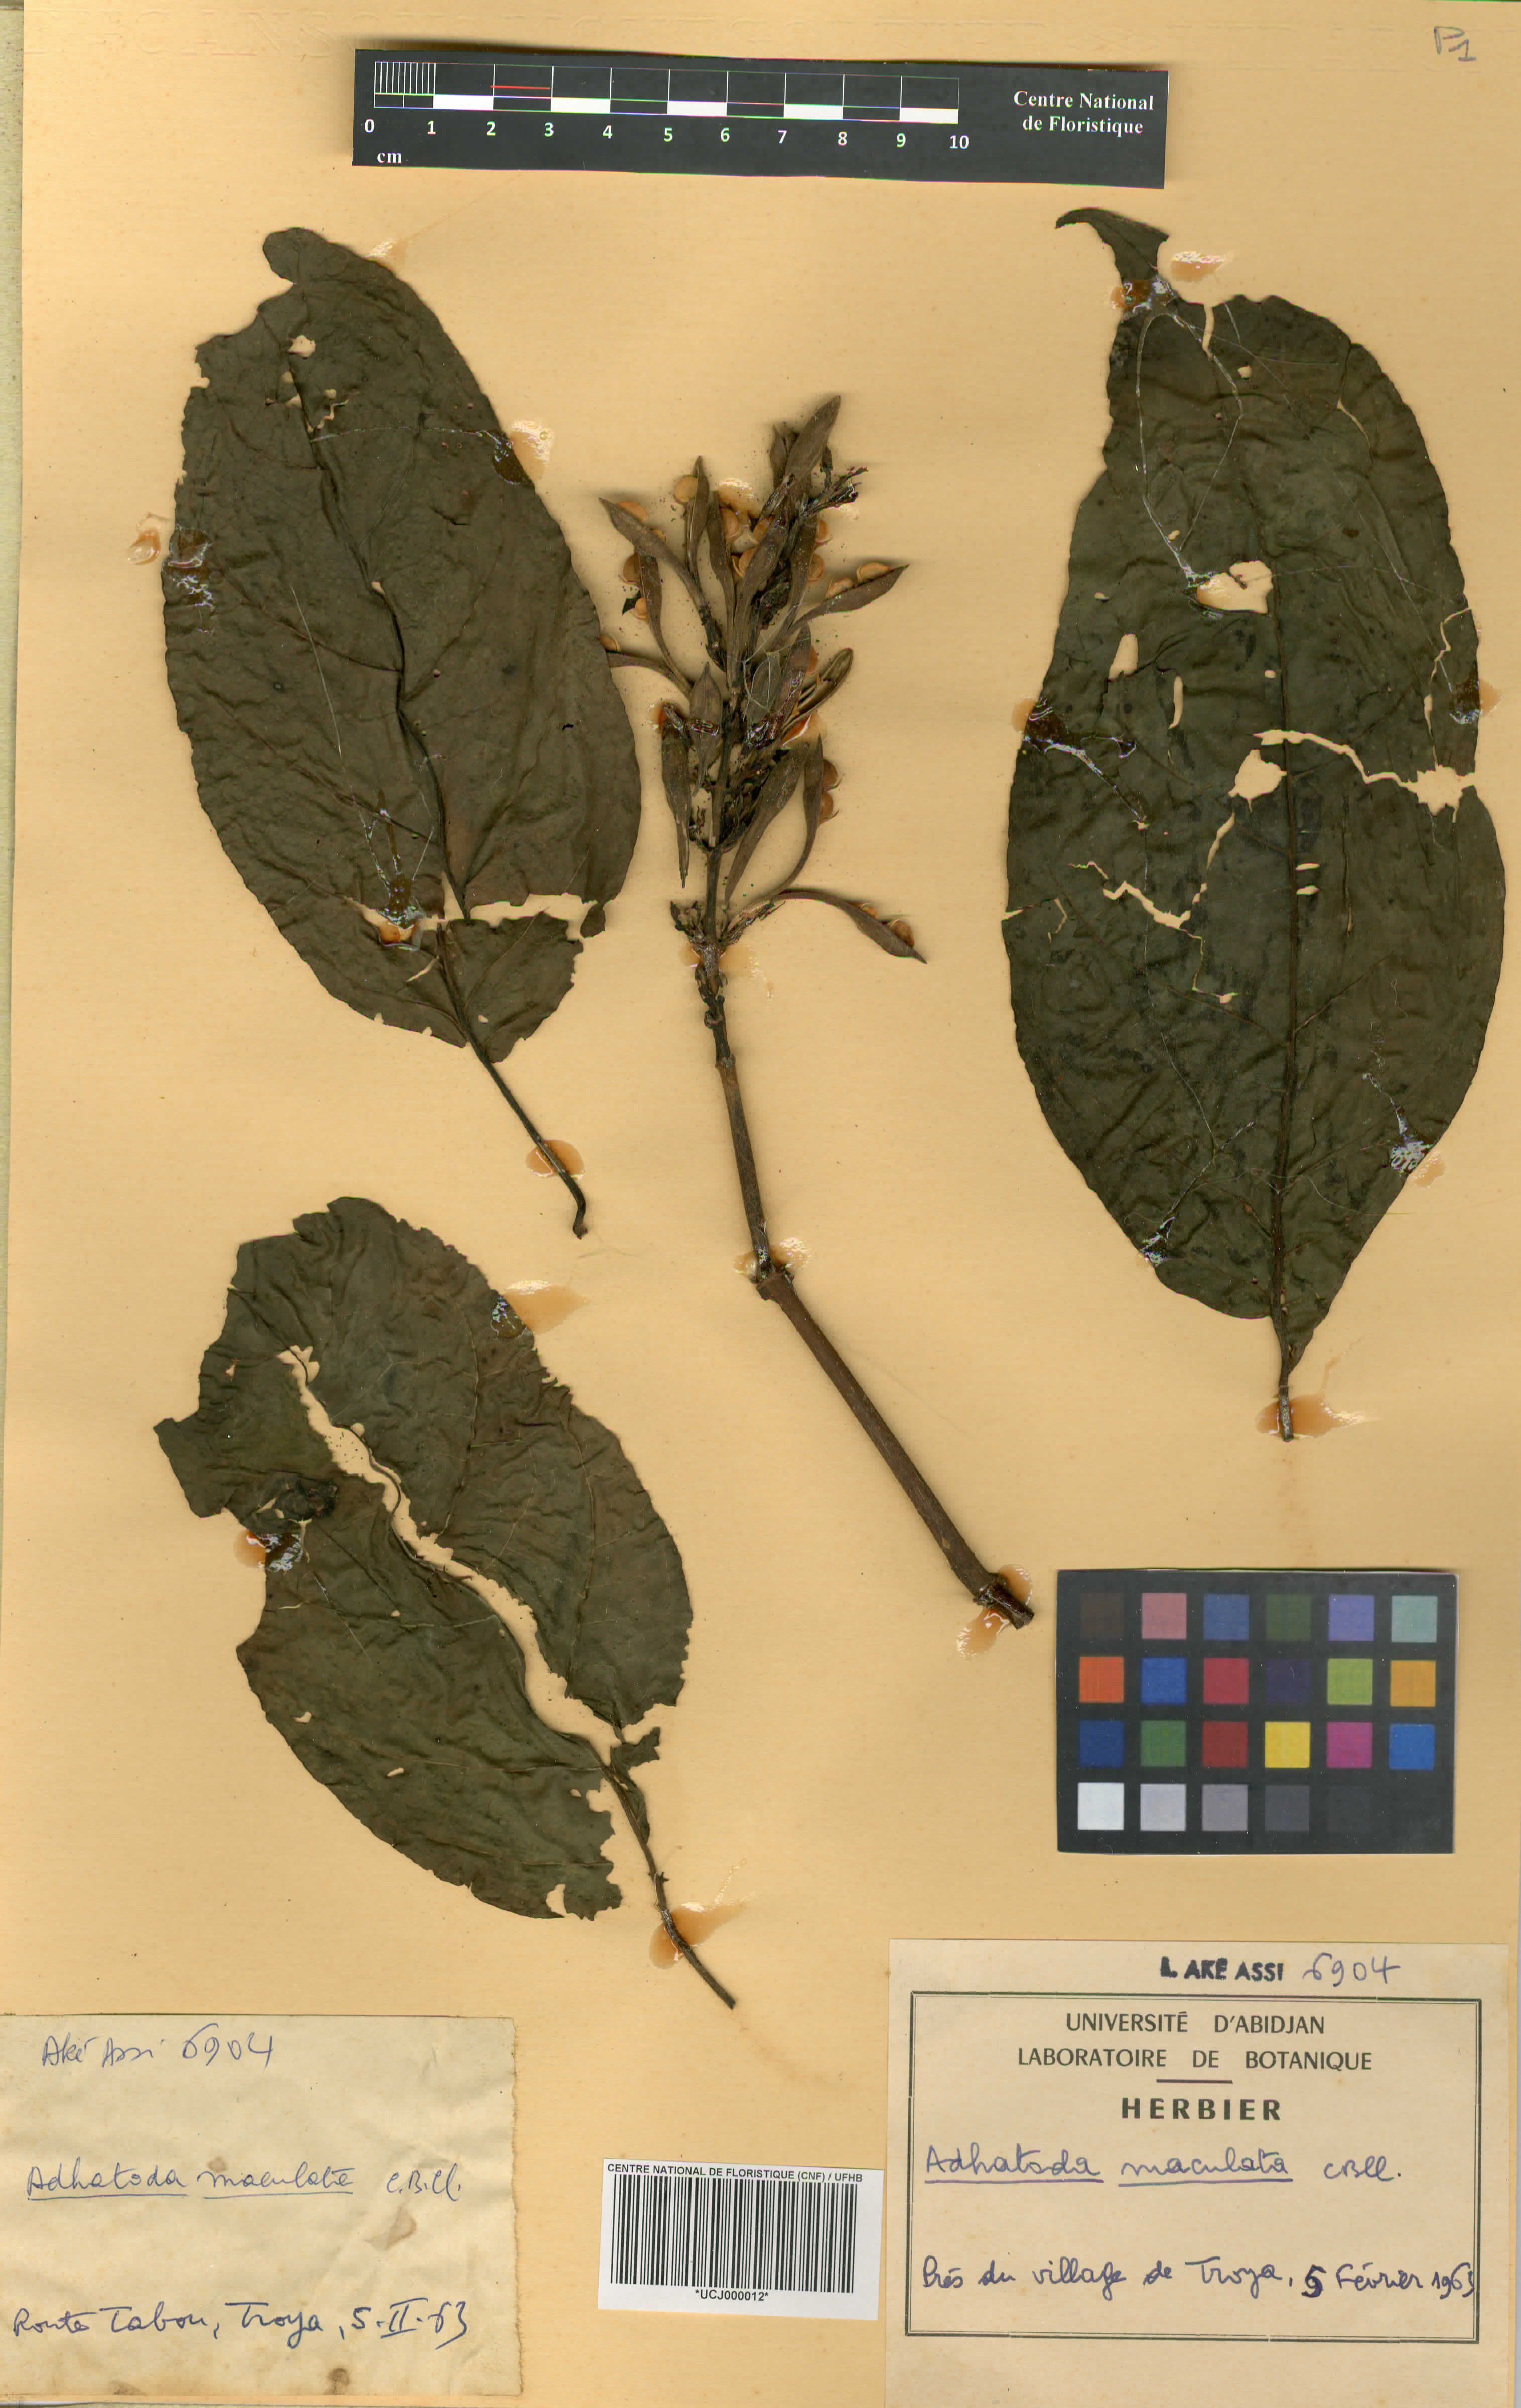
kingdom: Plantae
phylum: Tracheophyta
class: Magnoliopsida
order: Lamiales
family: Acanthaceae
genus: Asystasia
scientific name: Asystasia trichotogyne
